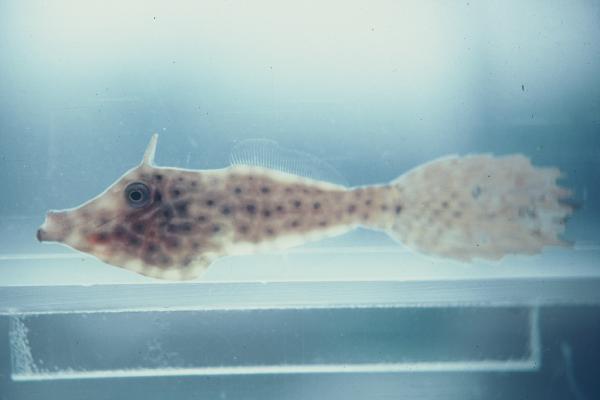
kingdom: Animalia
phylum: Chordata
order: Tetraodontiformes
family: Monacanthidae
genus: Aluterus
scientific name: Aluterus scriptus
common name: Scribbled leatherjacket filefish
